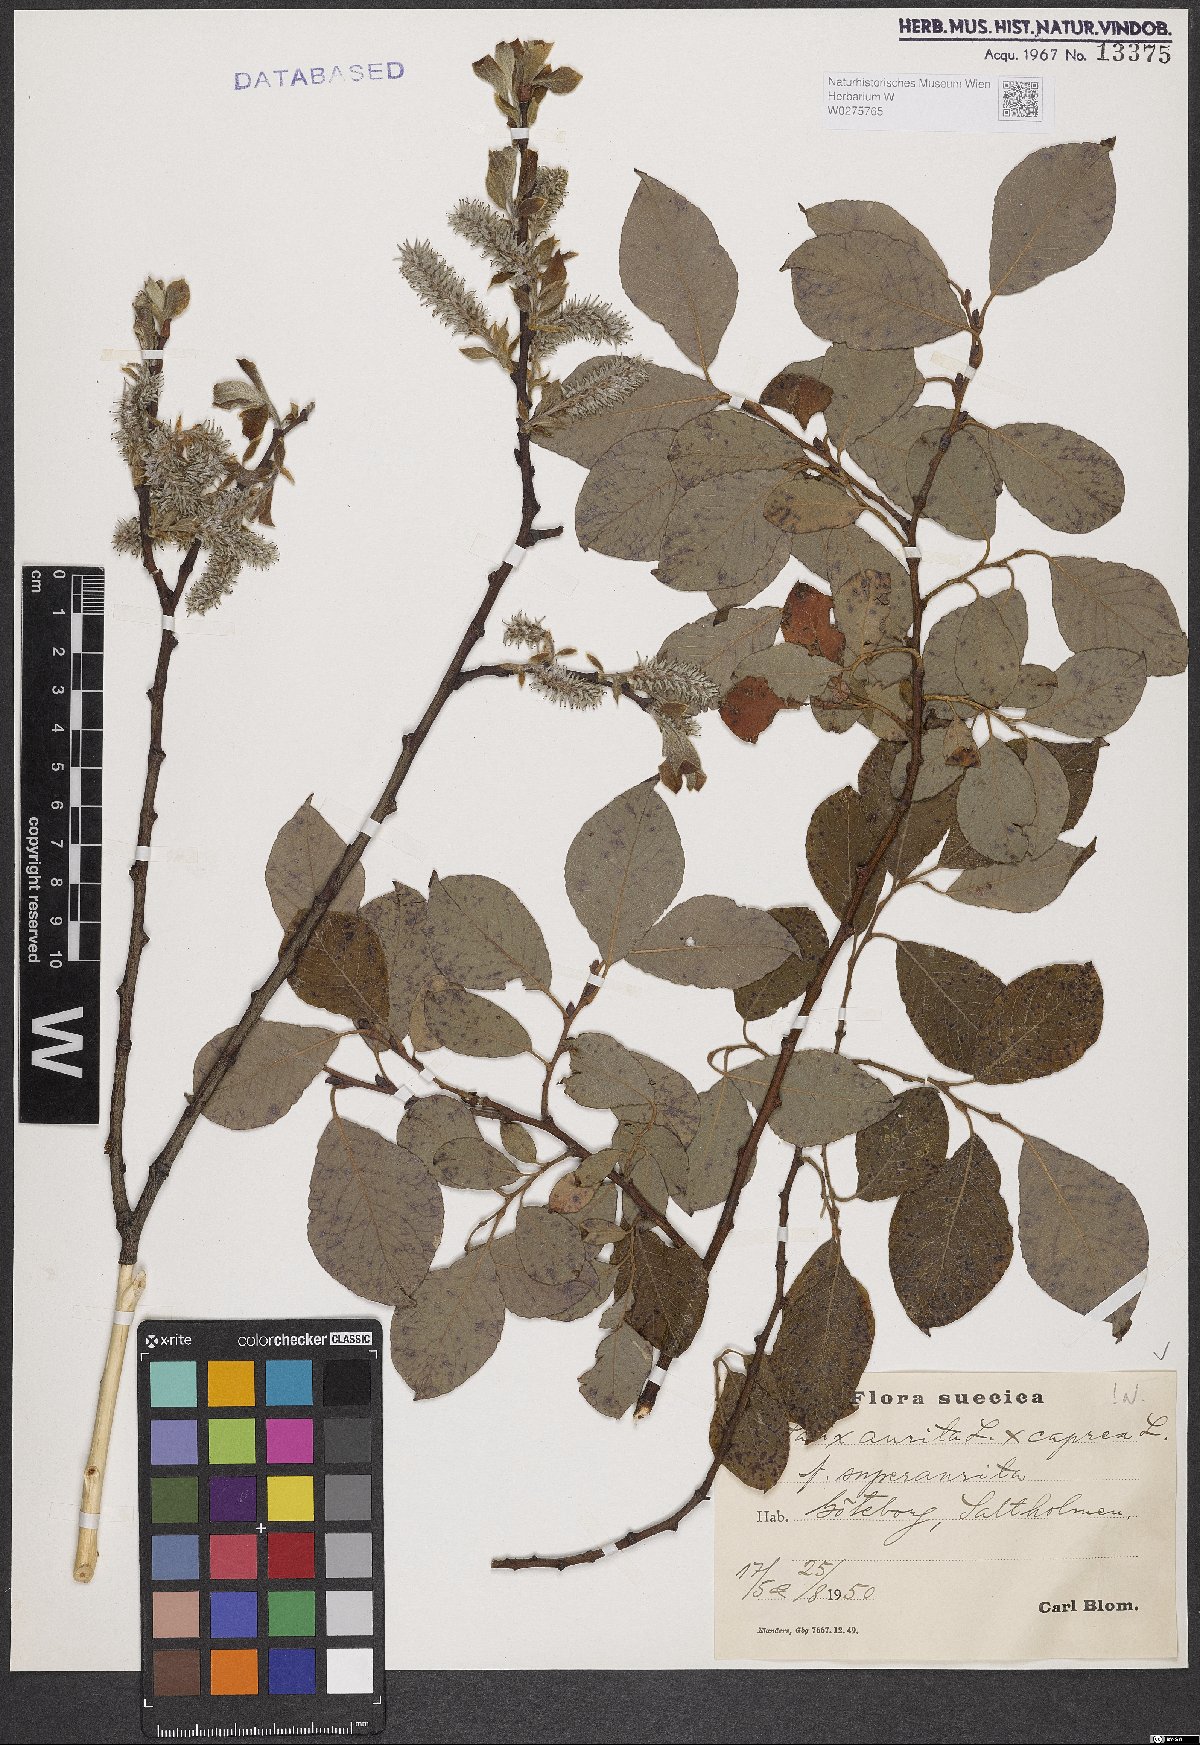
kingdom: Plantae
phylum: Tracheophyta
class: Magnoliopsida
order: Malpighiales
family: Salicaceae
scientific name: Salicaceae
